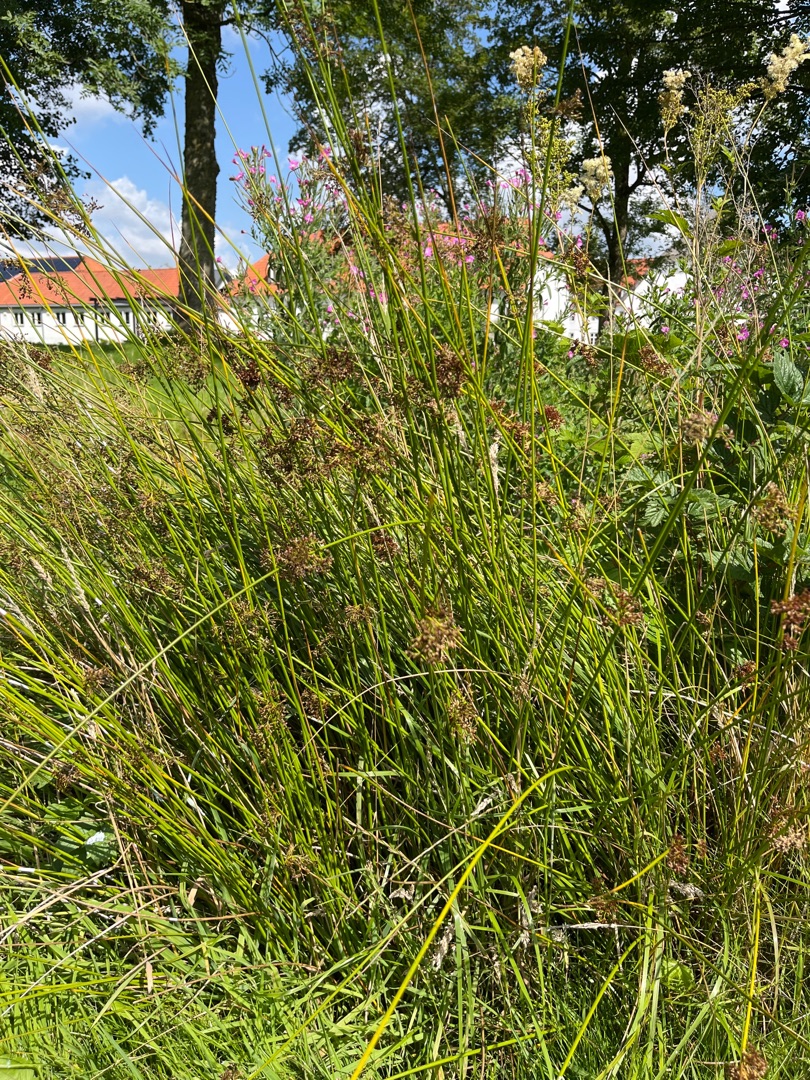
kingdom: Plantae
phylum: Tracheophyta
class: Liliopsida
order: Poales
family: Juncaceae
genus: Juncus
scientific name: Juncus effusus
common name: Lyse-siv
